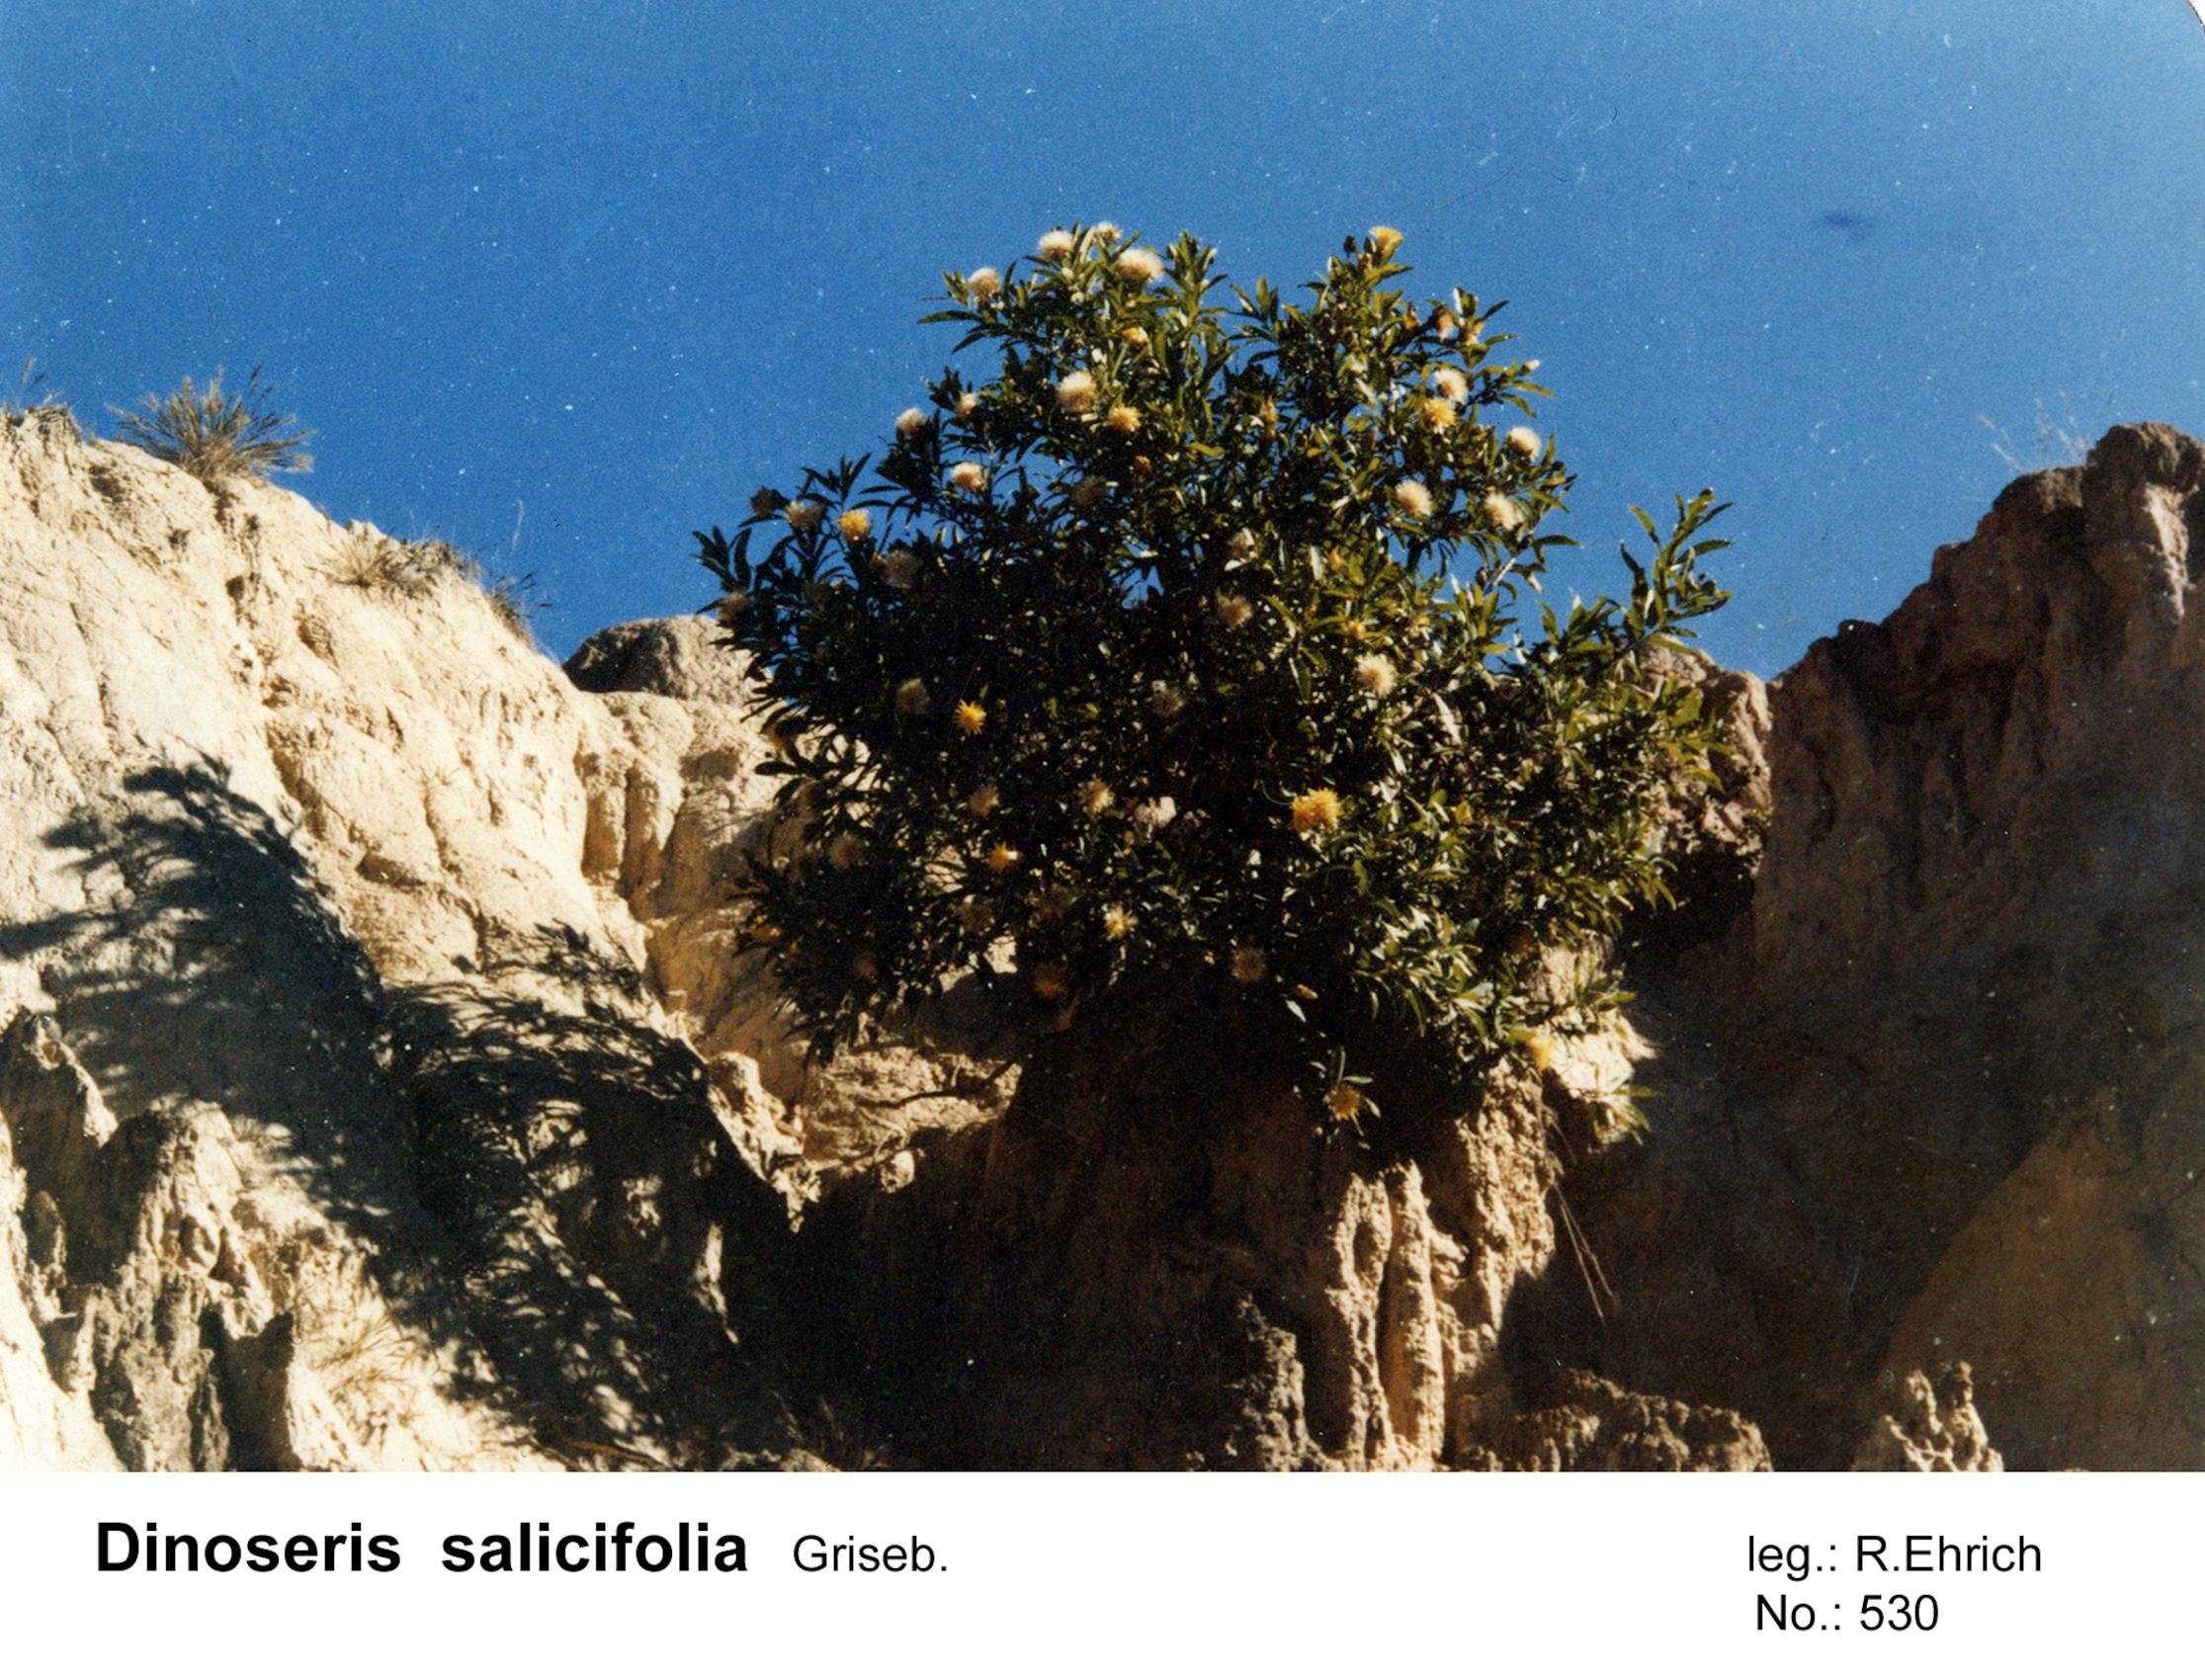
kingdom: Plantae
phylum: Tracheophyta
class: Magnoliopsida
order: Asterales
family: Asteraceae
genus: Hyaloseris
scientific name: Hyaloseris salicifolia
